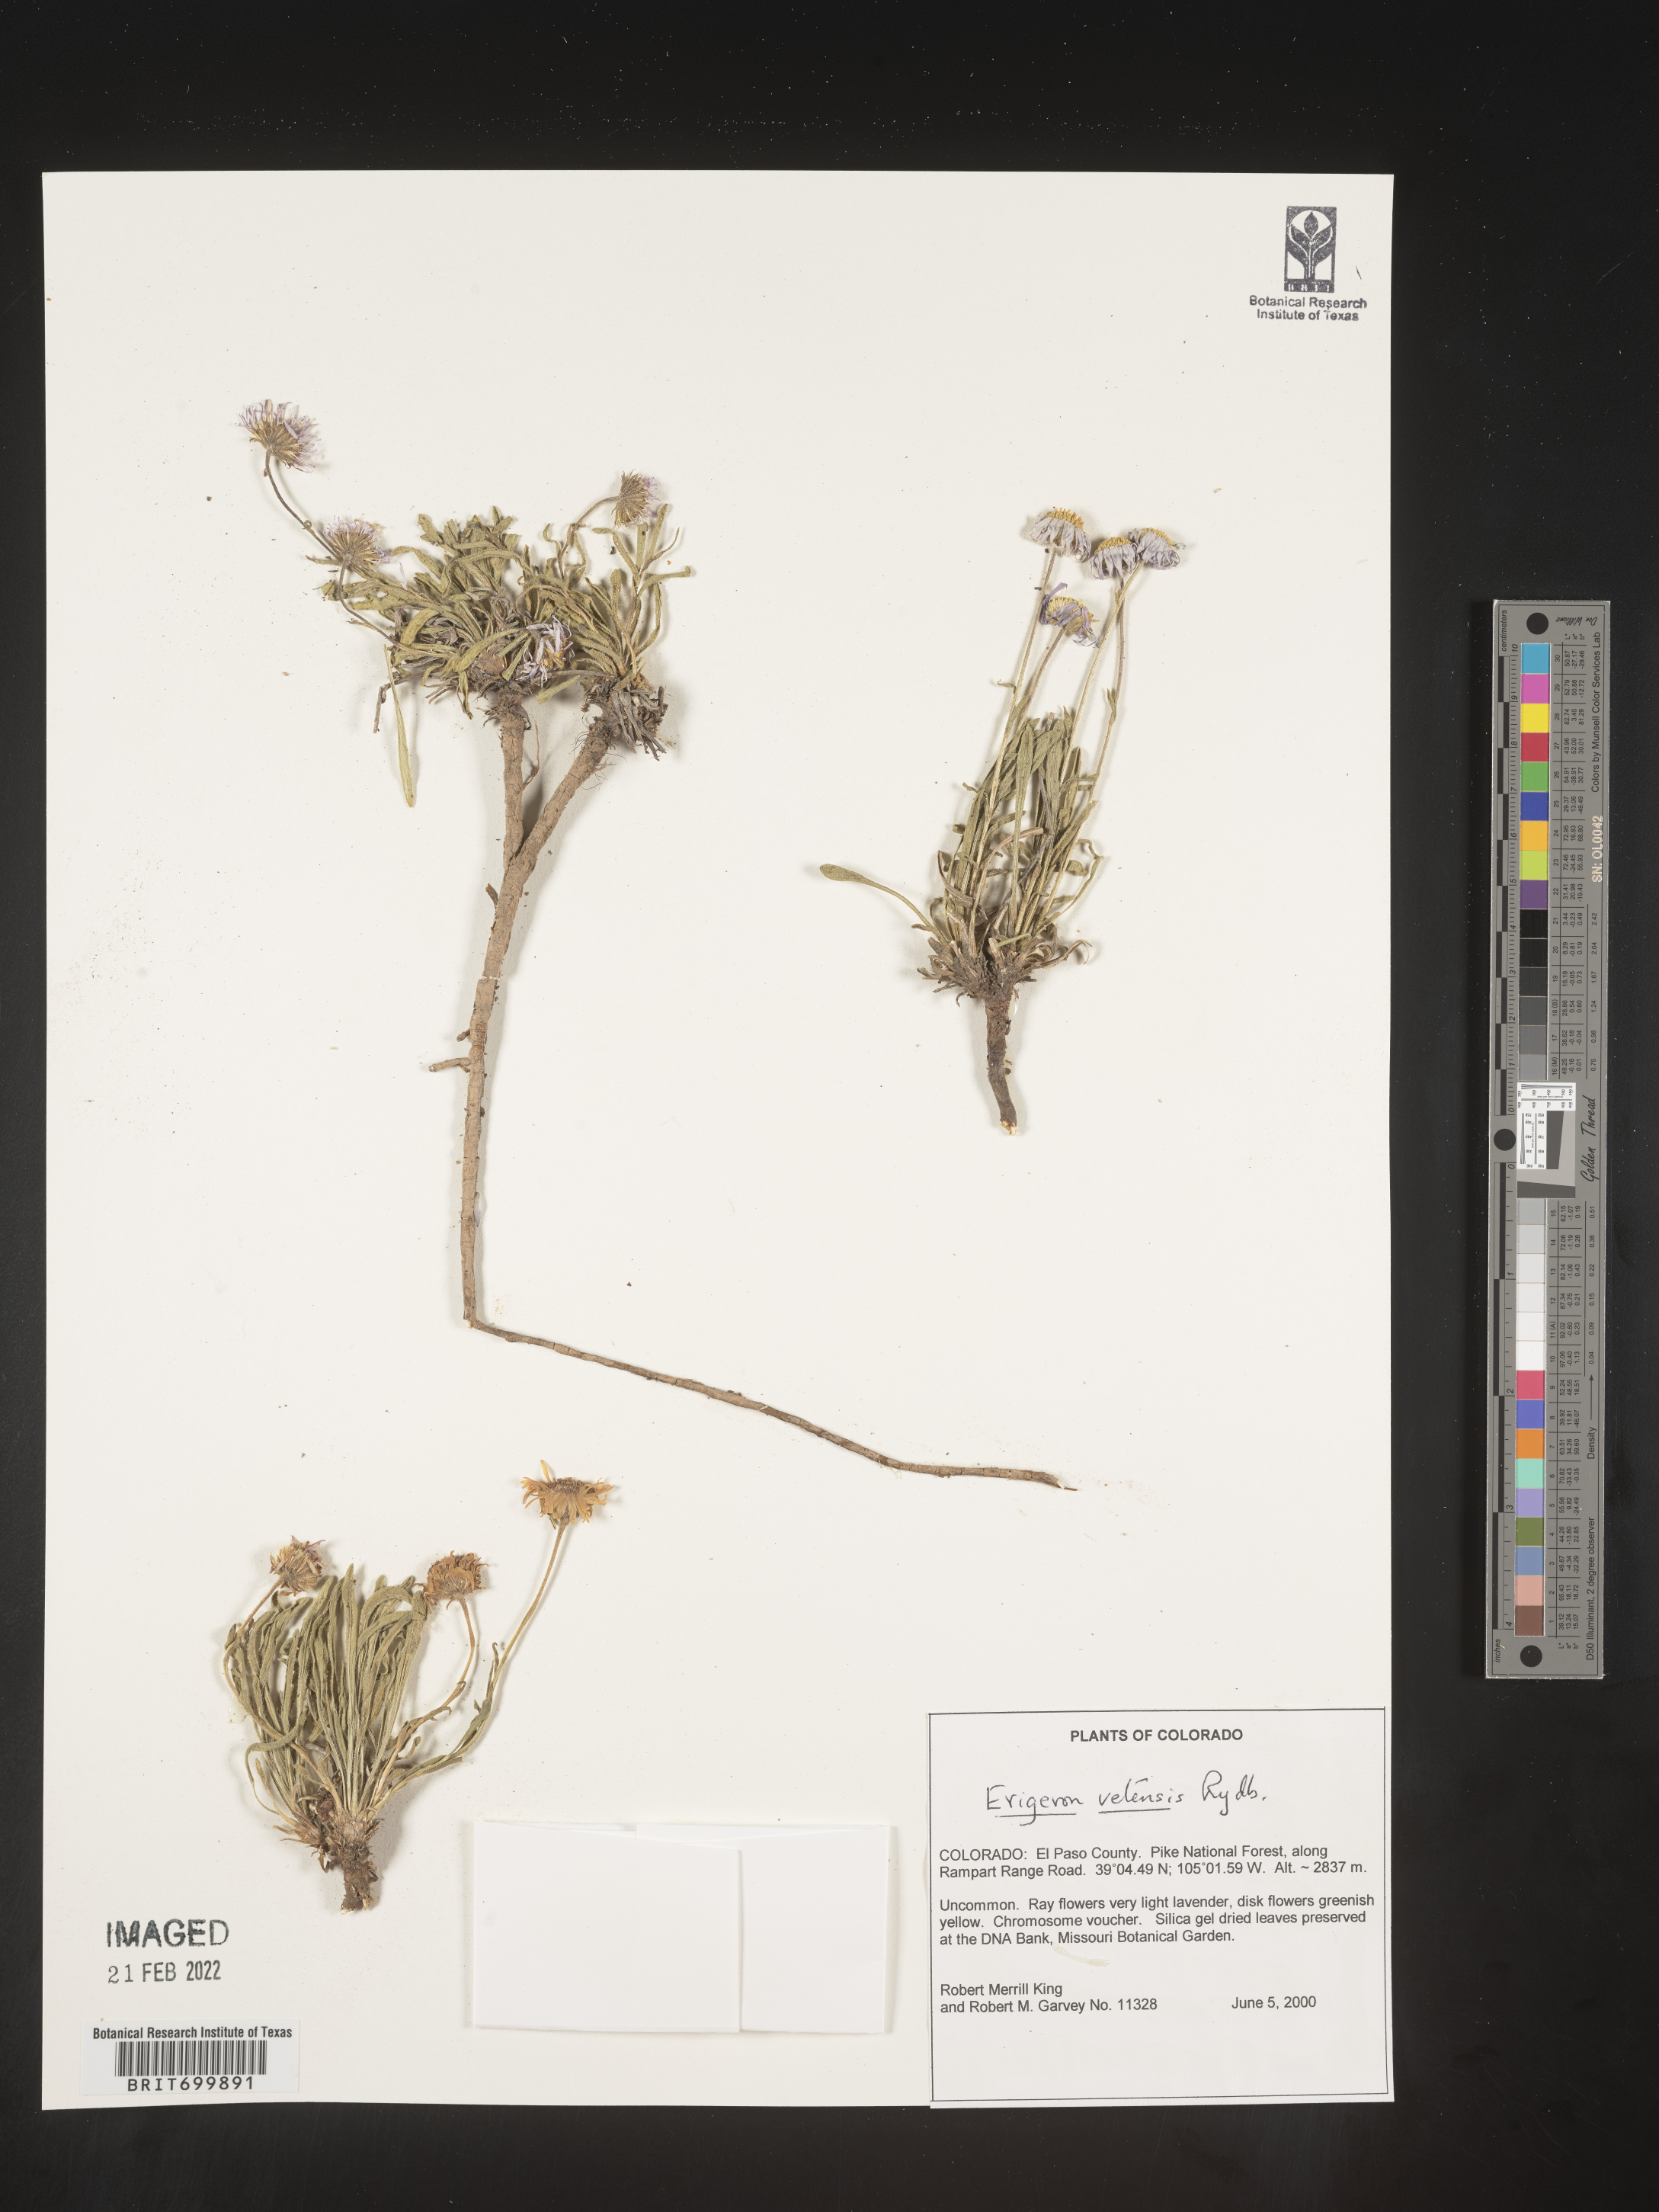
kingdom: Plantae
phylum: Tracheophyta
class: Magnoliopsida
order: Asterales
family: Asteraceae
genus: Erigeron
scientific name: Erigeron vetensis
